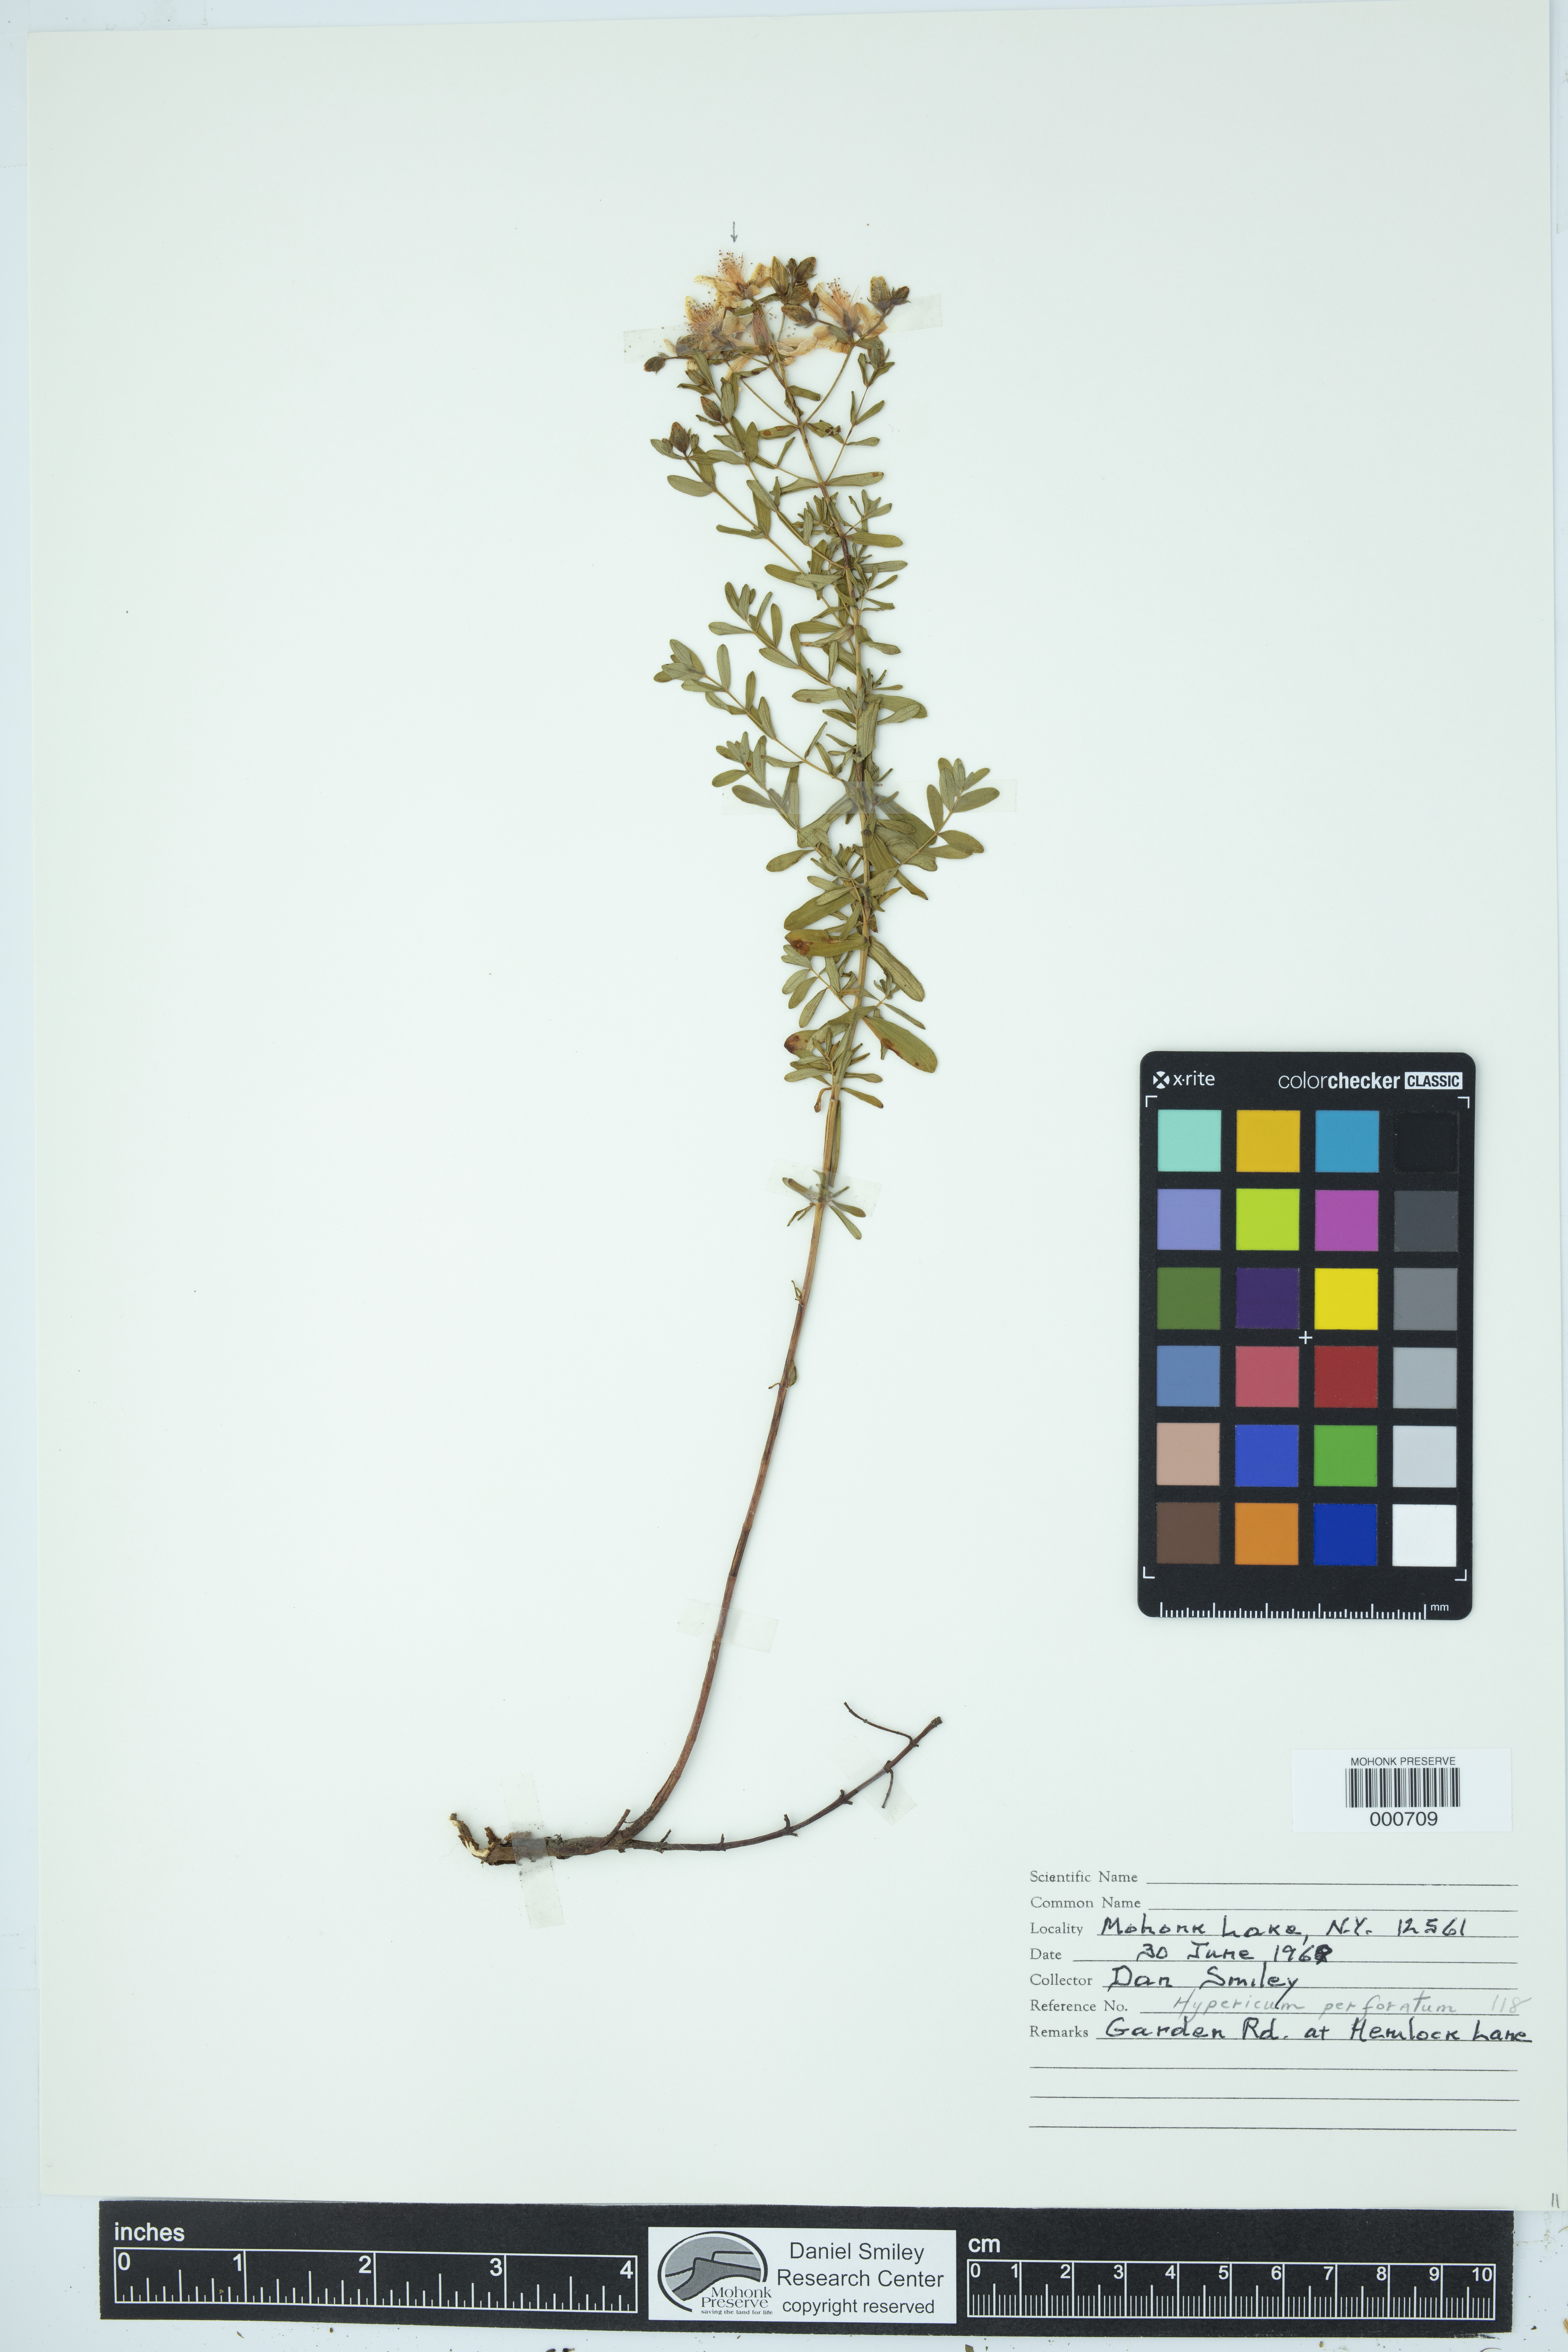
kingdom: Plantae
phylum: Tracheophyta
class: Magnoliopsida
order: Malpighiales
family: Hypericaceae
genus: Hypericum
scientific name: Hypericum perforatum
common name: Common st. johnswort
